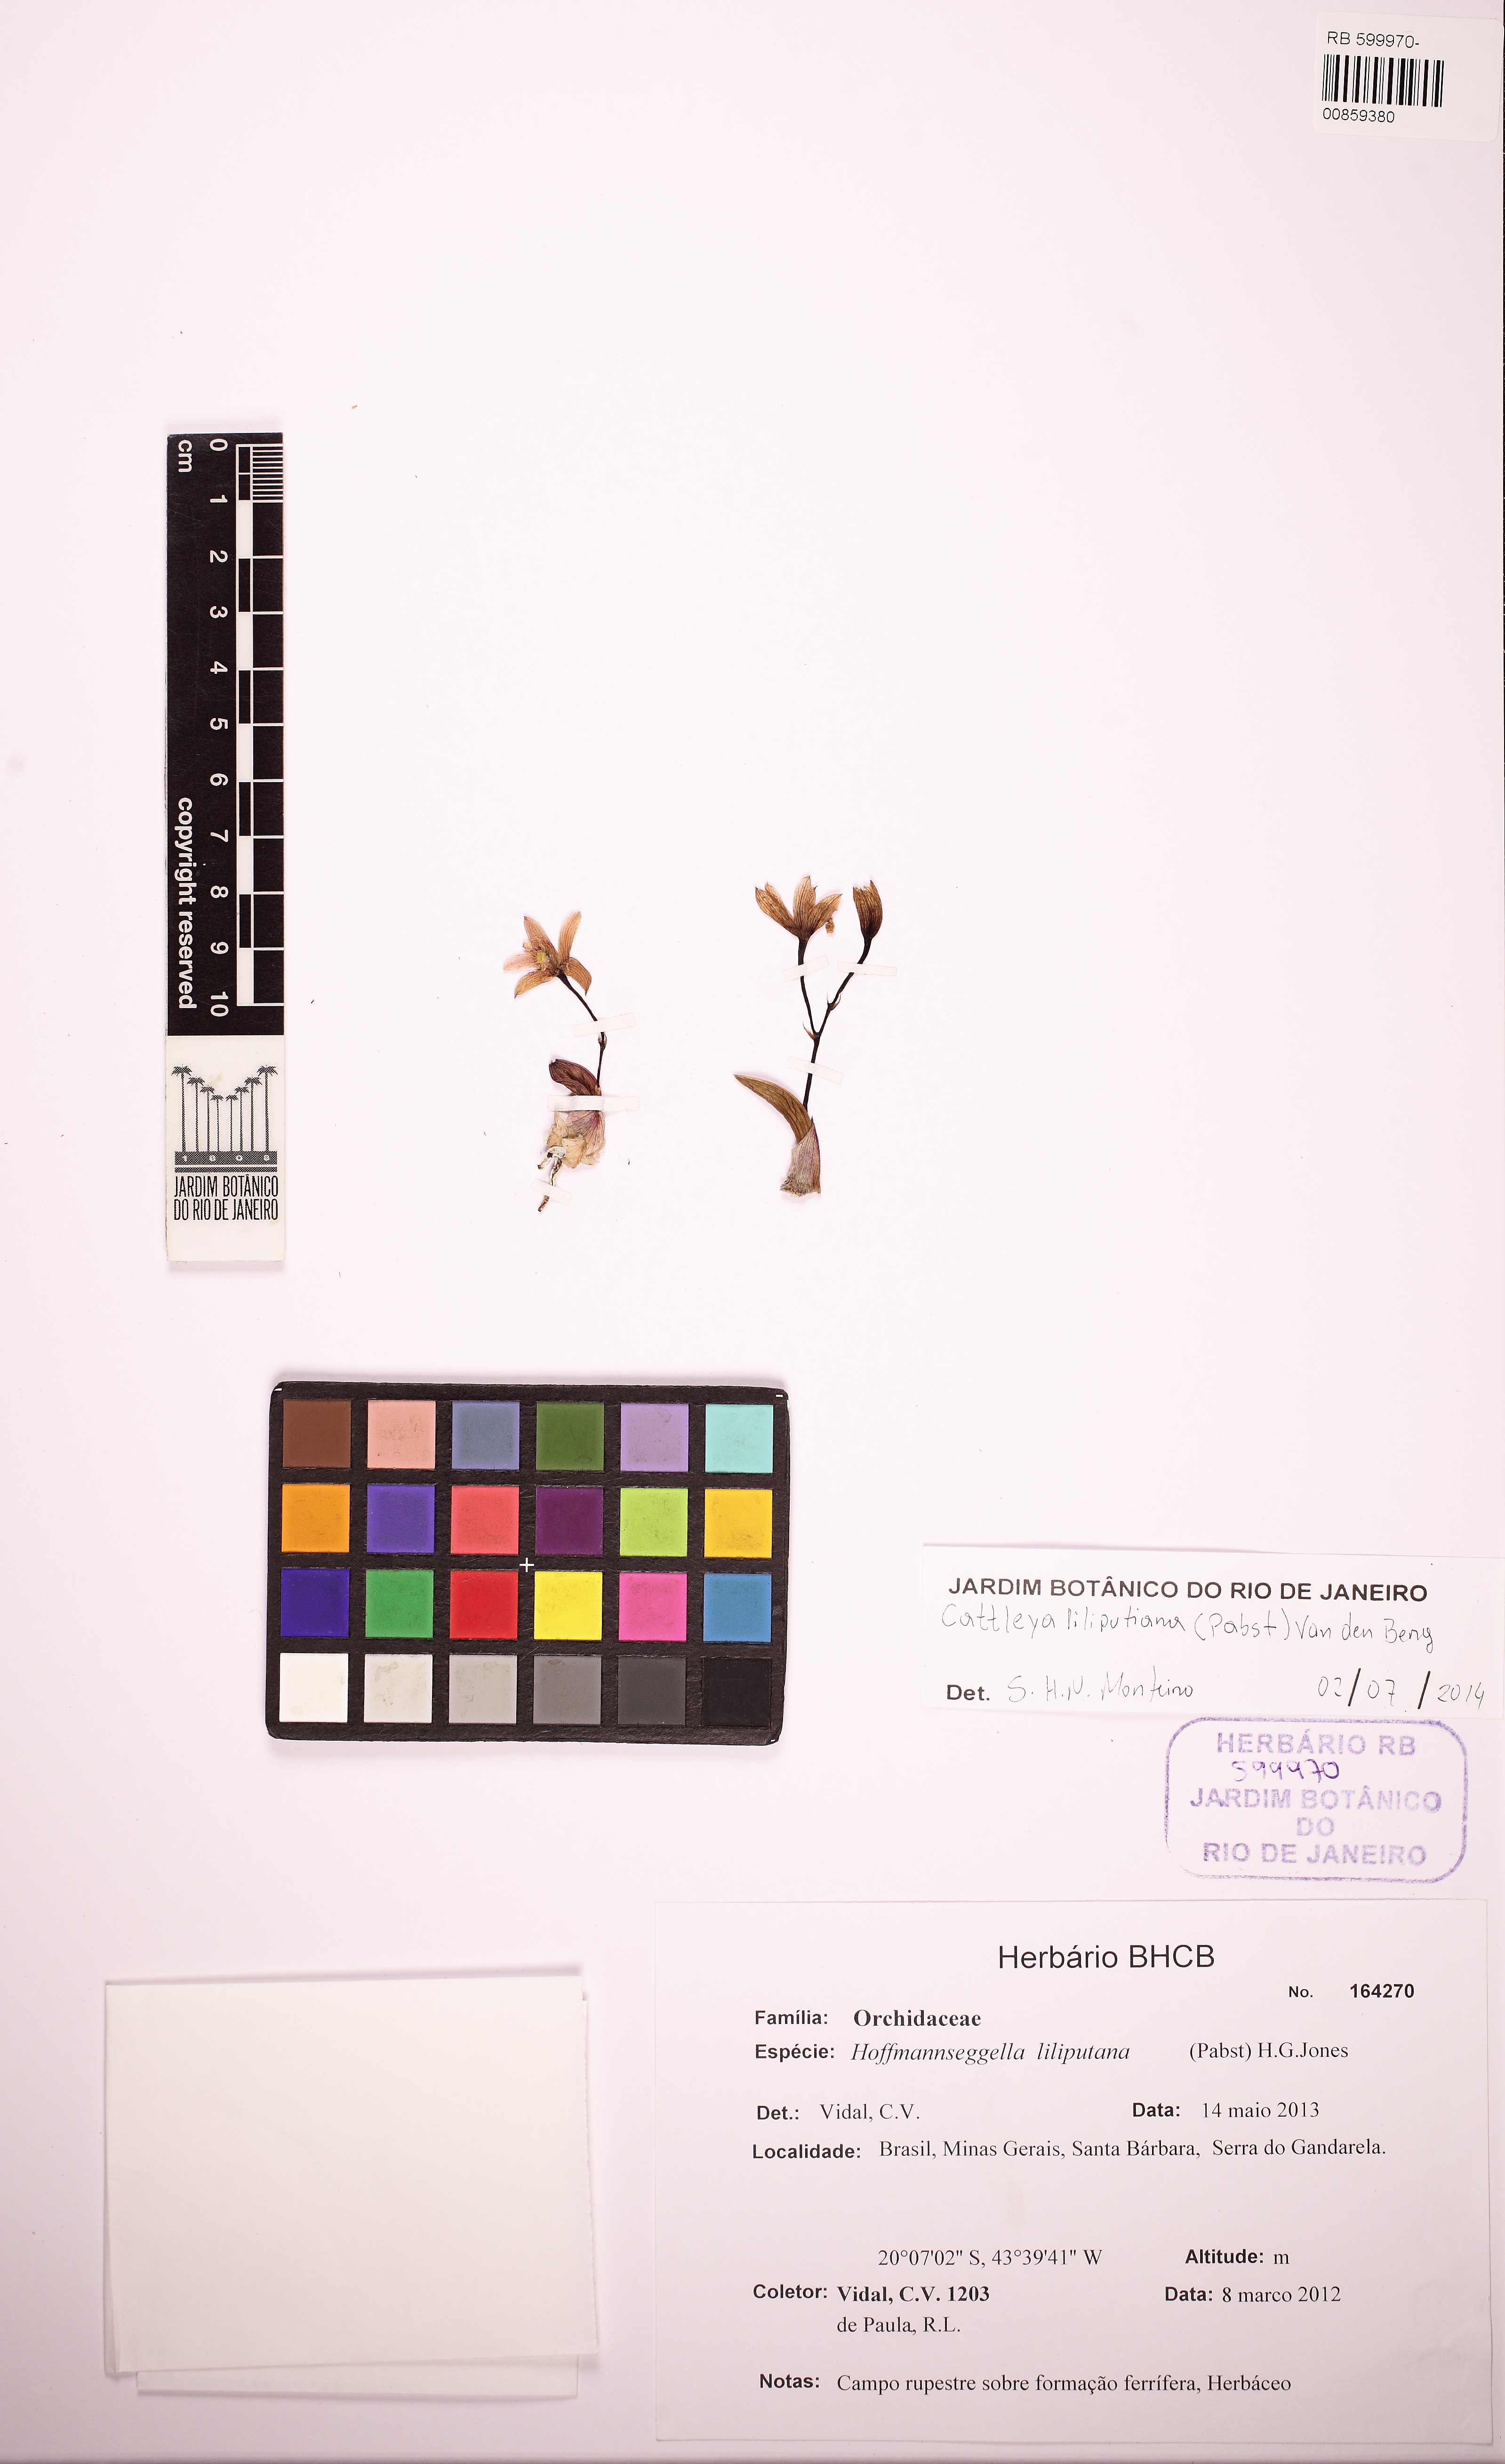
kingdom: Plantae
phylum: Tracheophyta
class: Liliopsida
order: Asparagales
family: Orchidaceae
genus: Cattleya
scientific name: Cattleya liliputana
